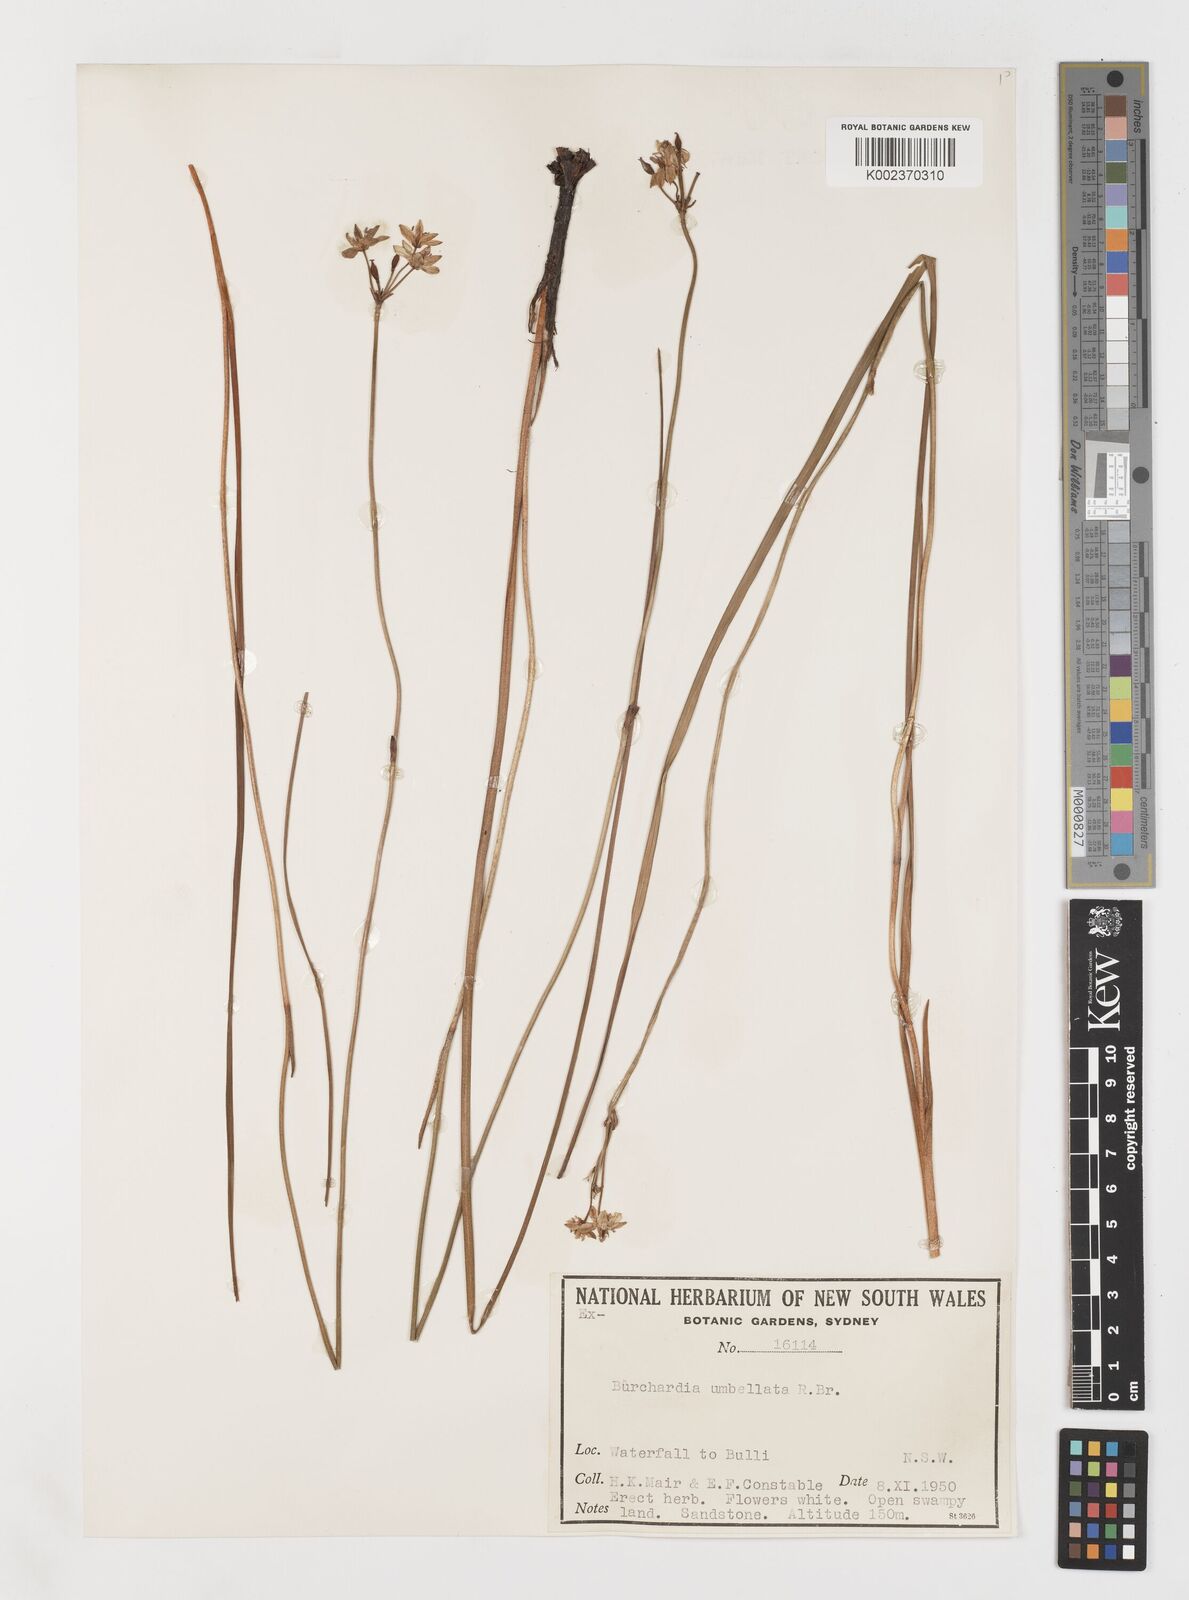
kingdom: Plantae
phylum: Tracheophyta
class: Liliopsida
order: Liliales
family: Colchicaceae
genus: Burchardia
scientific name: Burchardia umbellata
